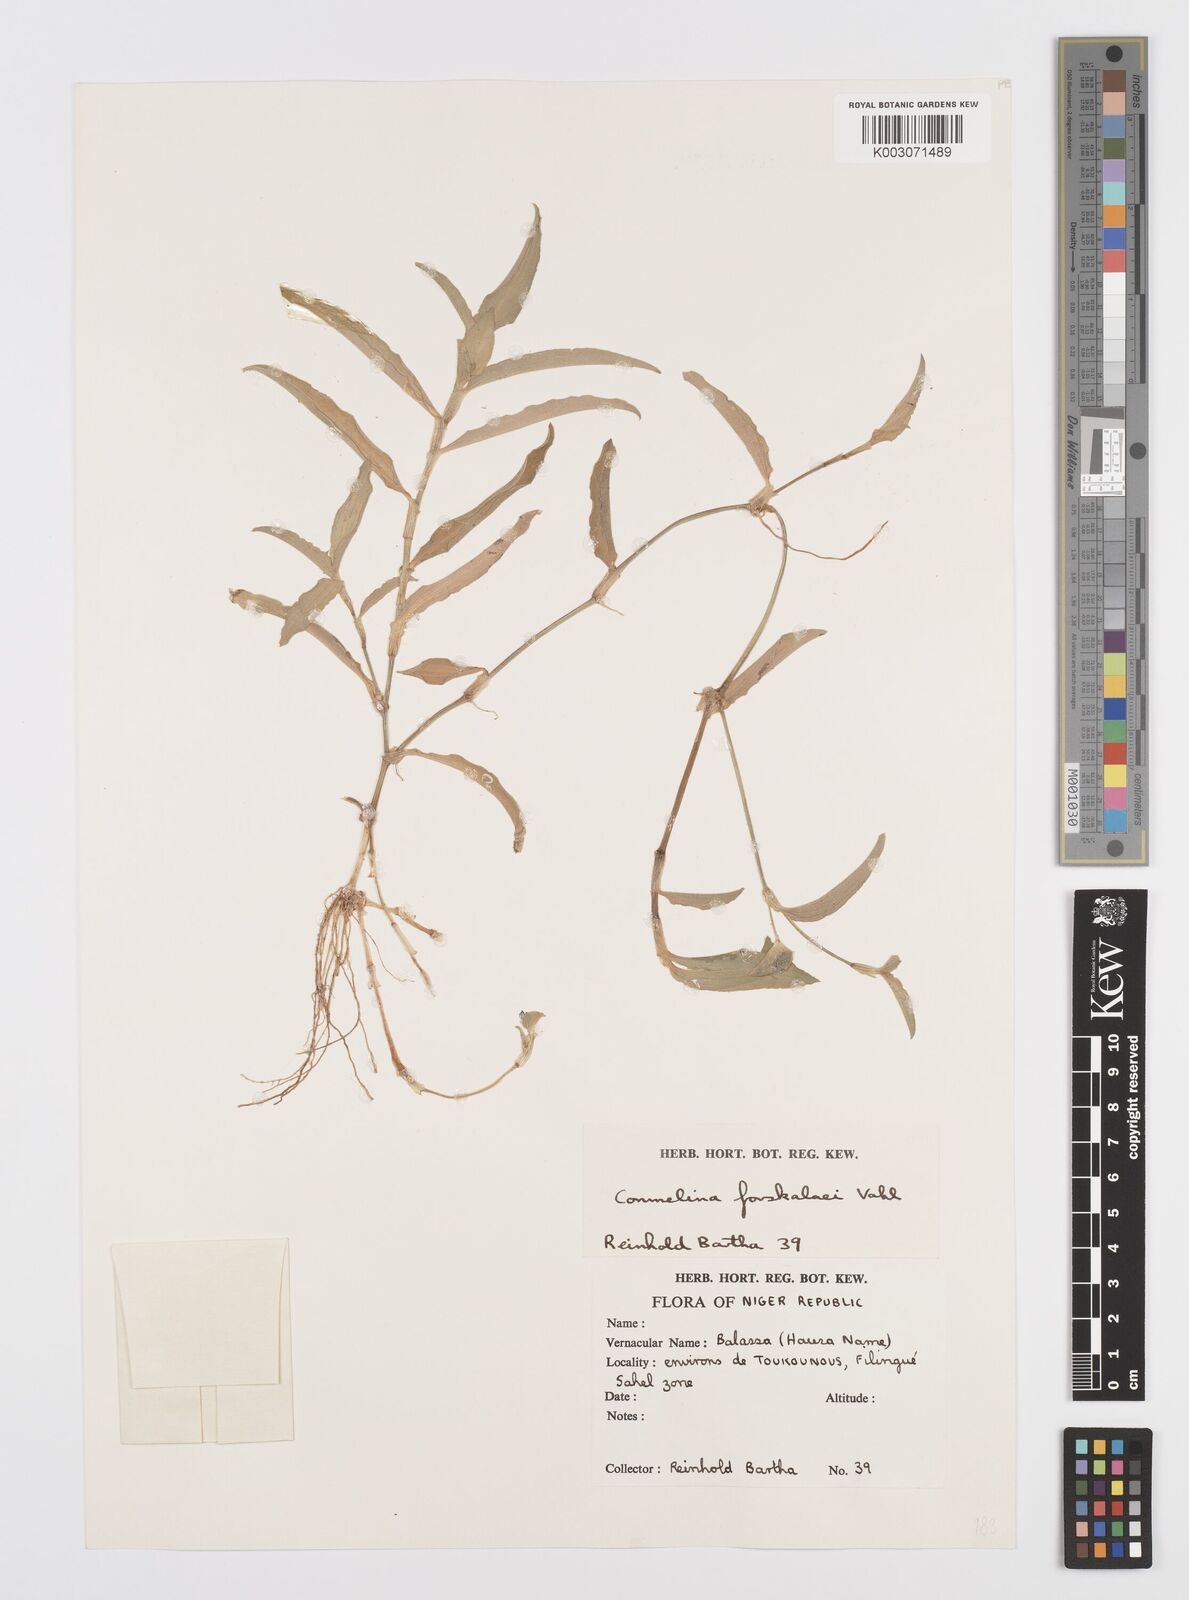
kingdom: Plantae
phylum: Tracheophyta
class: Liliopsida
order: Commelinales
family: Commelinaceae
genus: Commelina
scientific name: Commelina forskaolii
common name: Rat's ear
